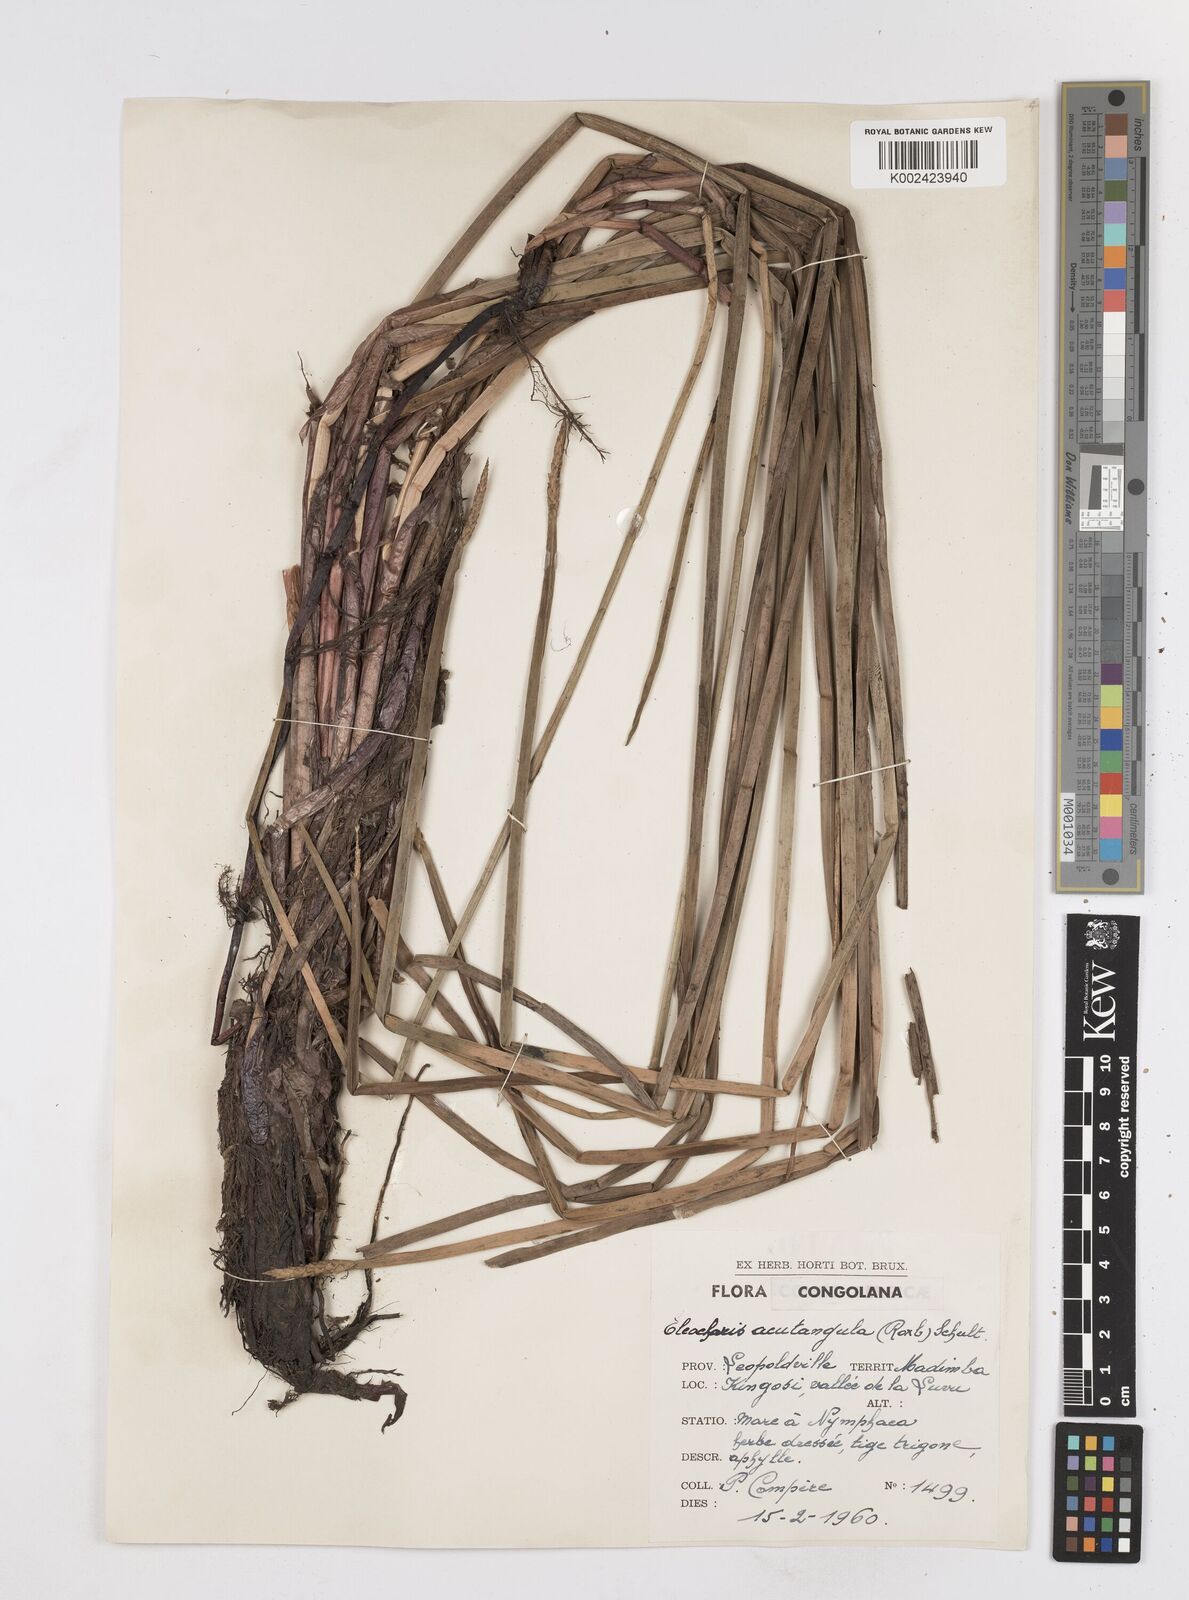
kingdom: Plantae
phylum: Tracheophyta
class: Liliopsida
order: Poales
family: Cyperaceae
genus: Eleocharis
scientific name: Eleocharis acutangula
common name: Acute spikerush
